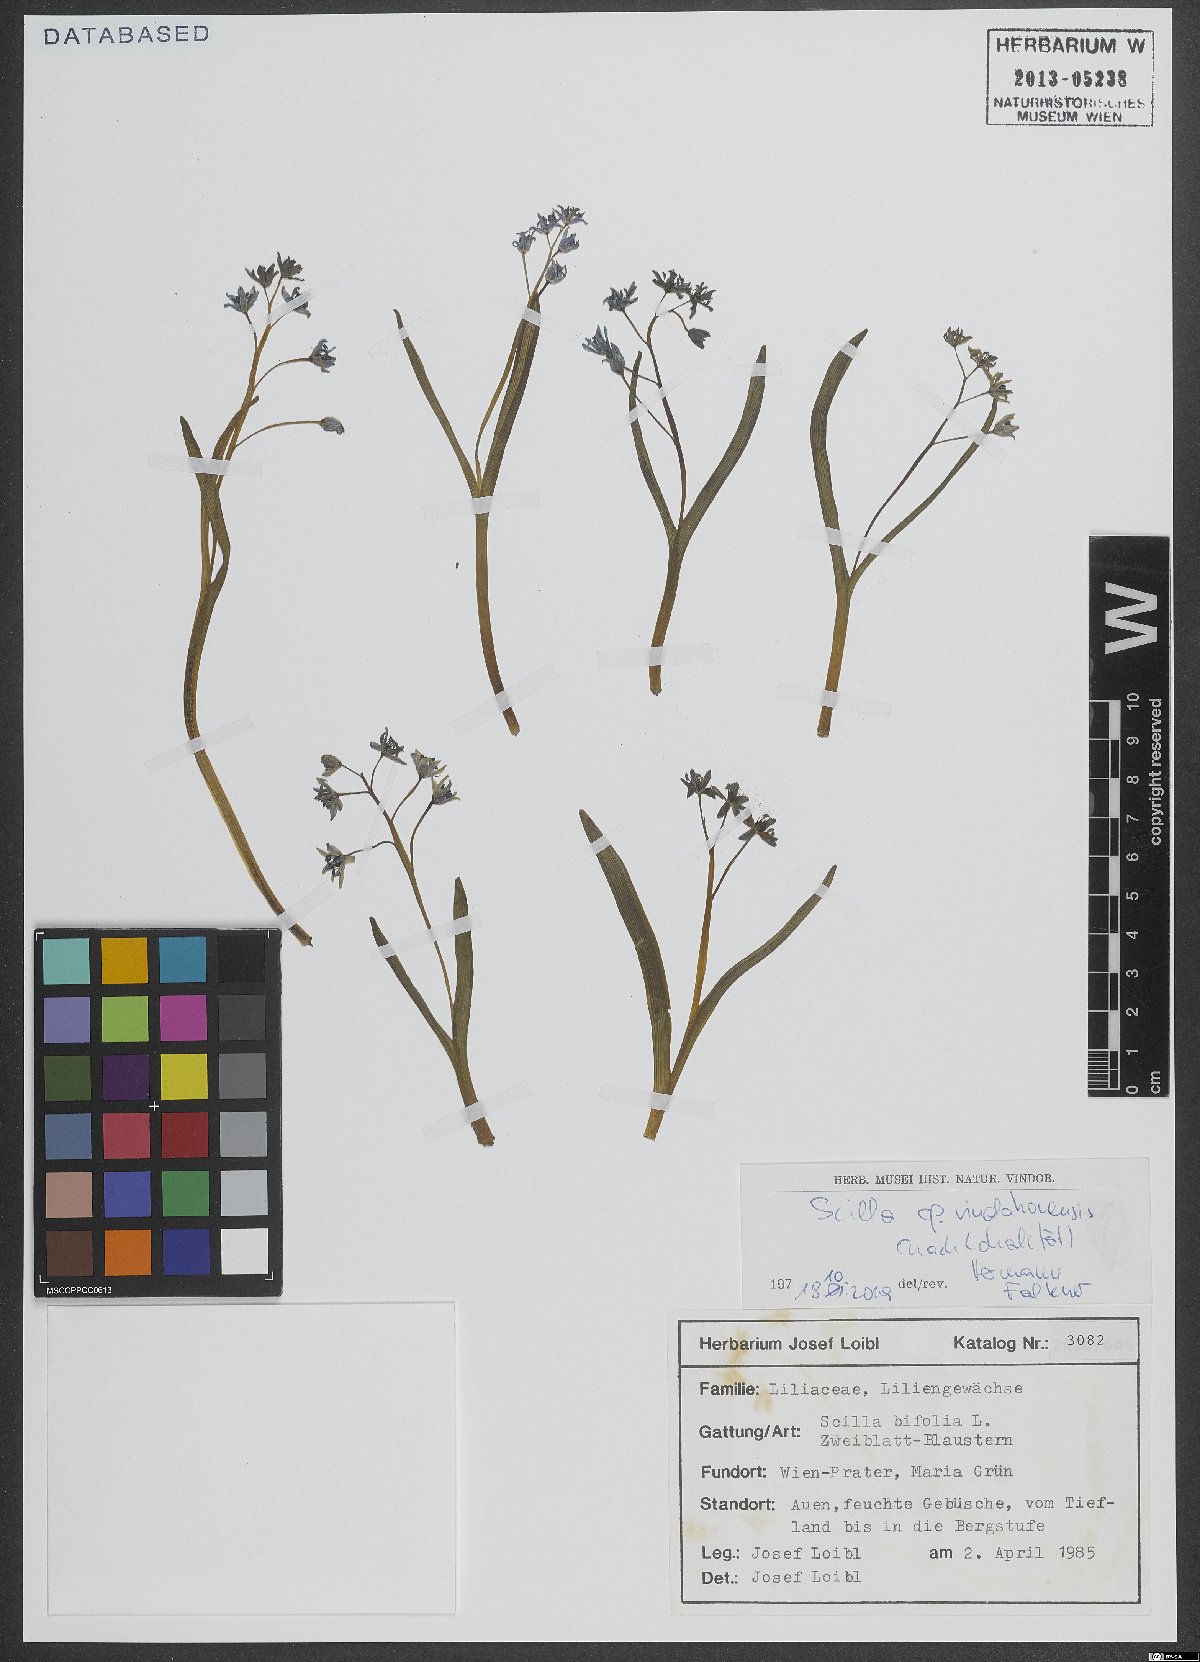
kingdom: Plantae
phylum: Tracheophyta
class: Liliopsida
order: Asparagales
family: Asparagaceae
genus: Scilla
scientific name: Scilla vindobonensis
